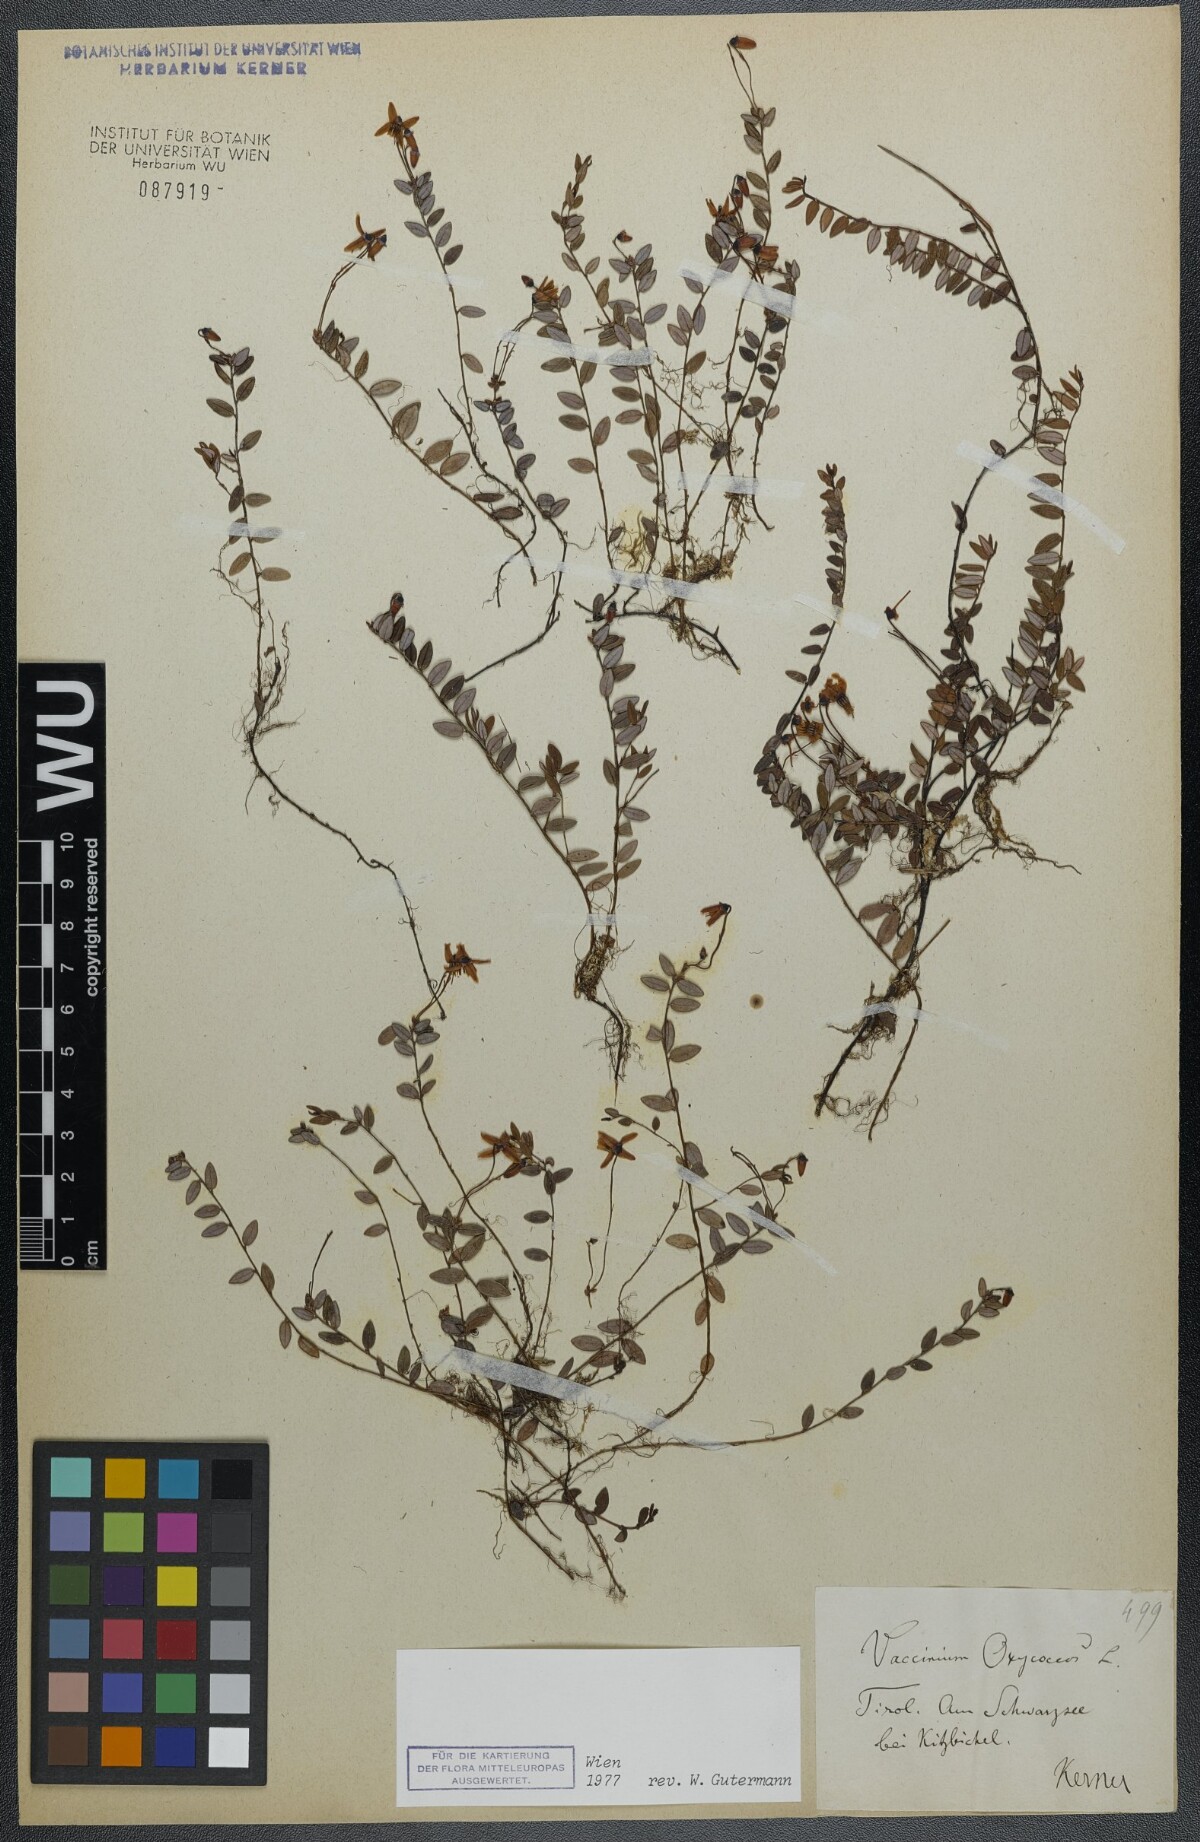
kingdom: Plantae
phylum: Tracheophyta
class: Magnoliopsida
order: Ericales
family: Ericaceae
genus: Vaccinium
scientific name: Vaccinium oxycoccos
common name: Cranberry
